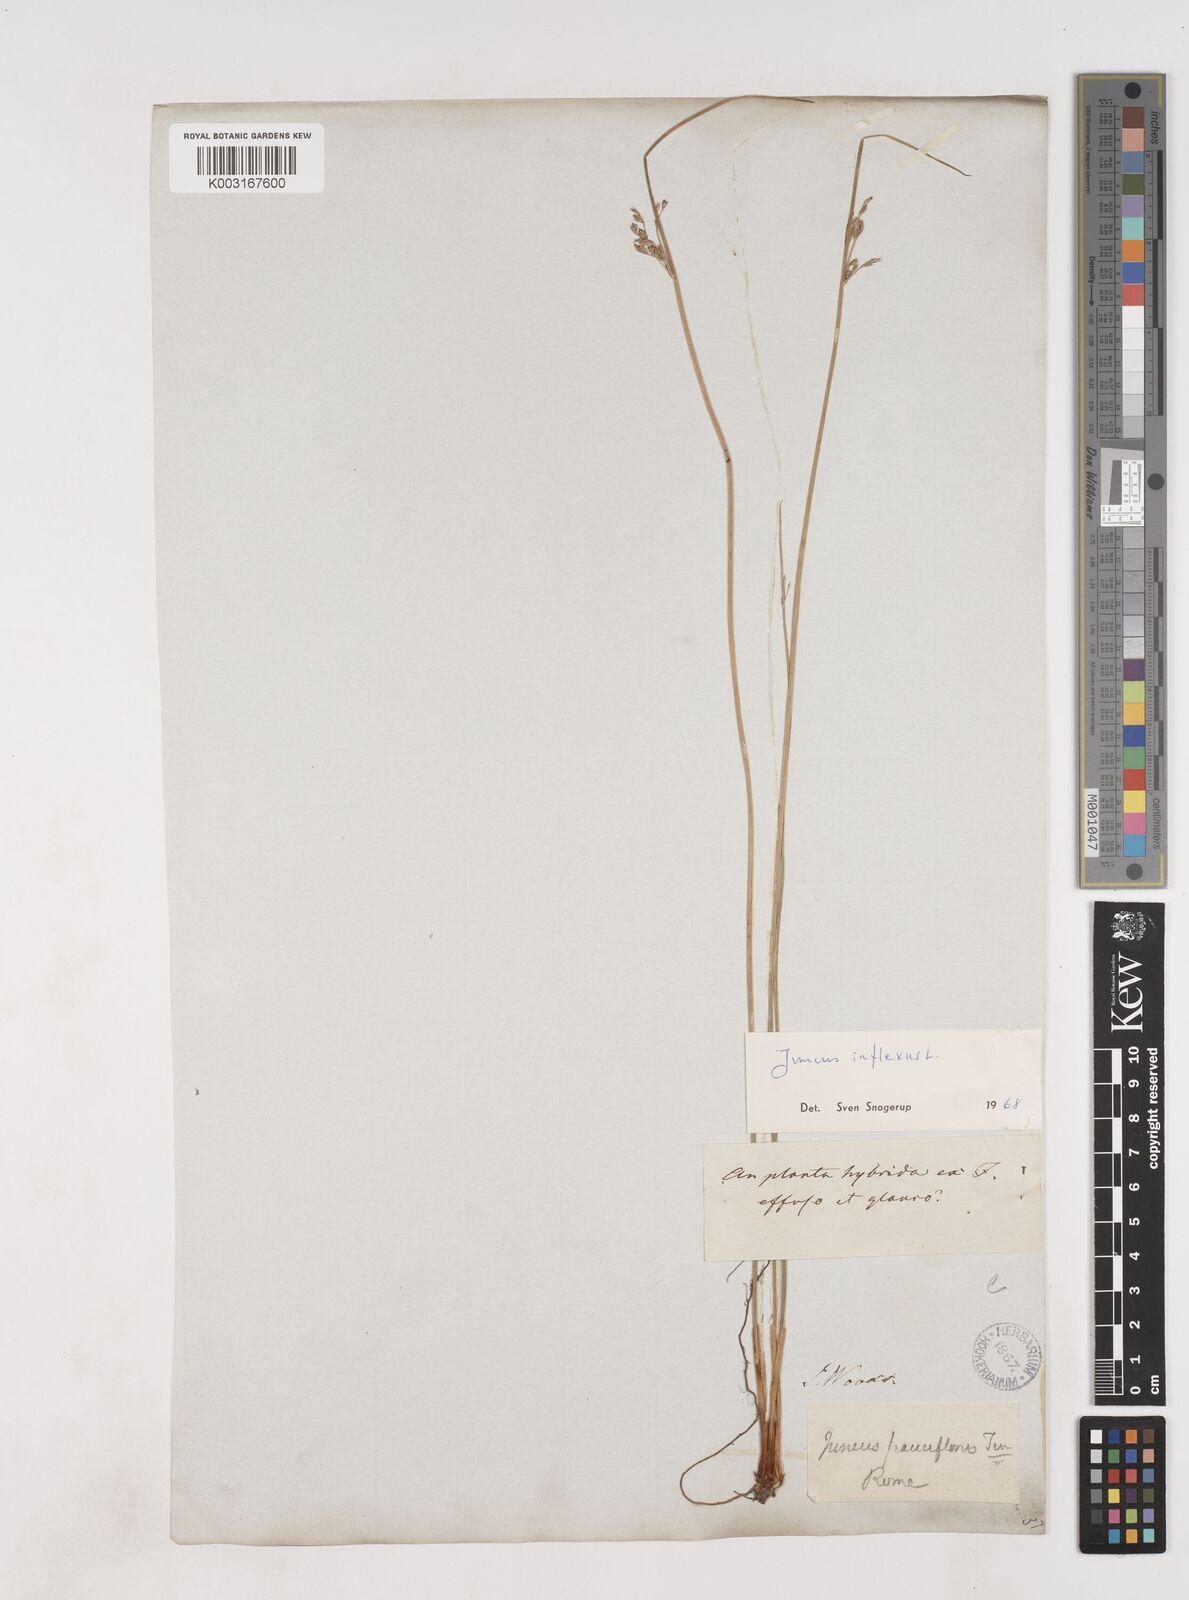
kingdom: Plantae
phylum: Tracheophyta
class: Liliopsida
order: Poales
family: Juncaceae
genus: Juncus
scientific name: Juncus inflexus
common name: Hard rush
